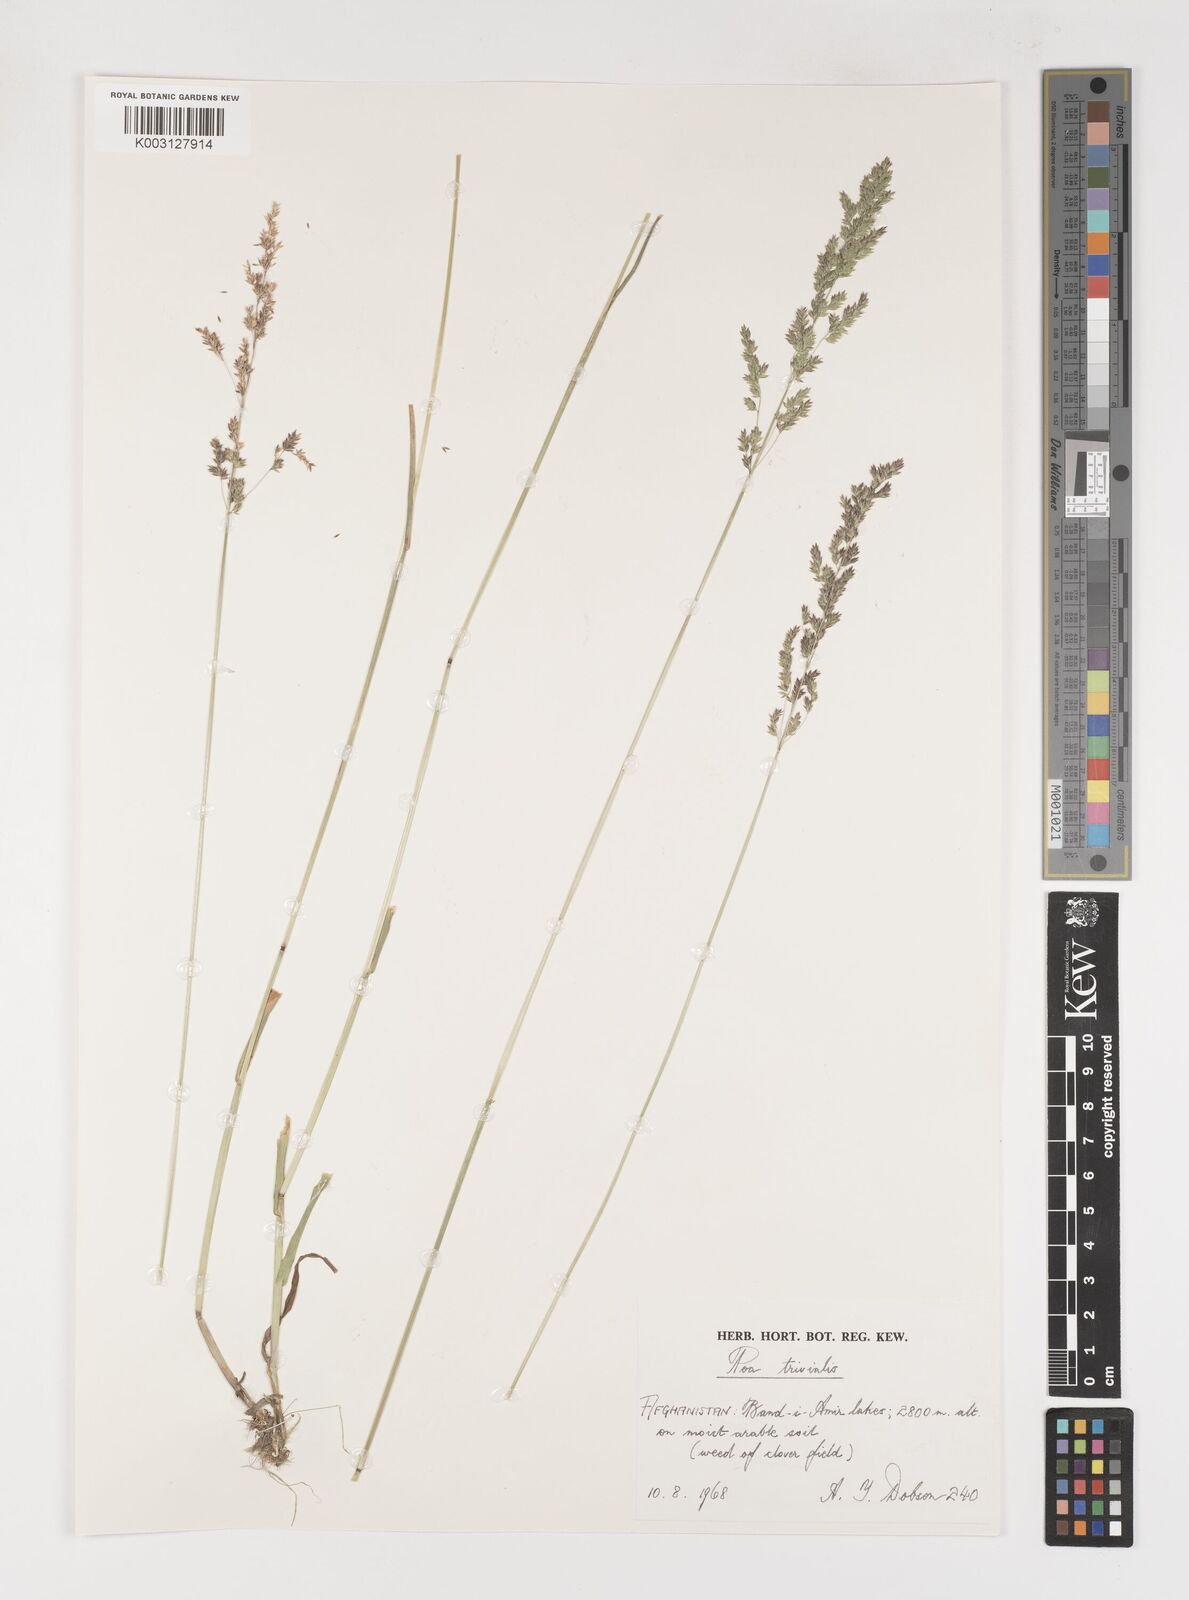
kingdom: Plantae
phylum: Tracheophyta
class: Liliopsida
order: Poales
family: Poaceae
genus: Poa
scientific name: Poa trivialis
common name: Rough bluegrass
